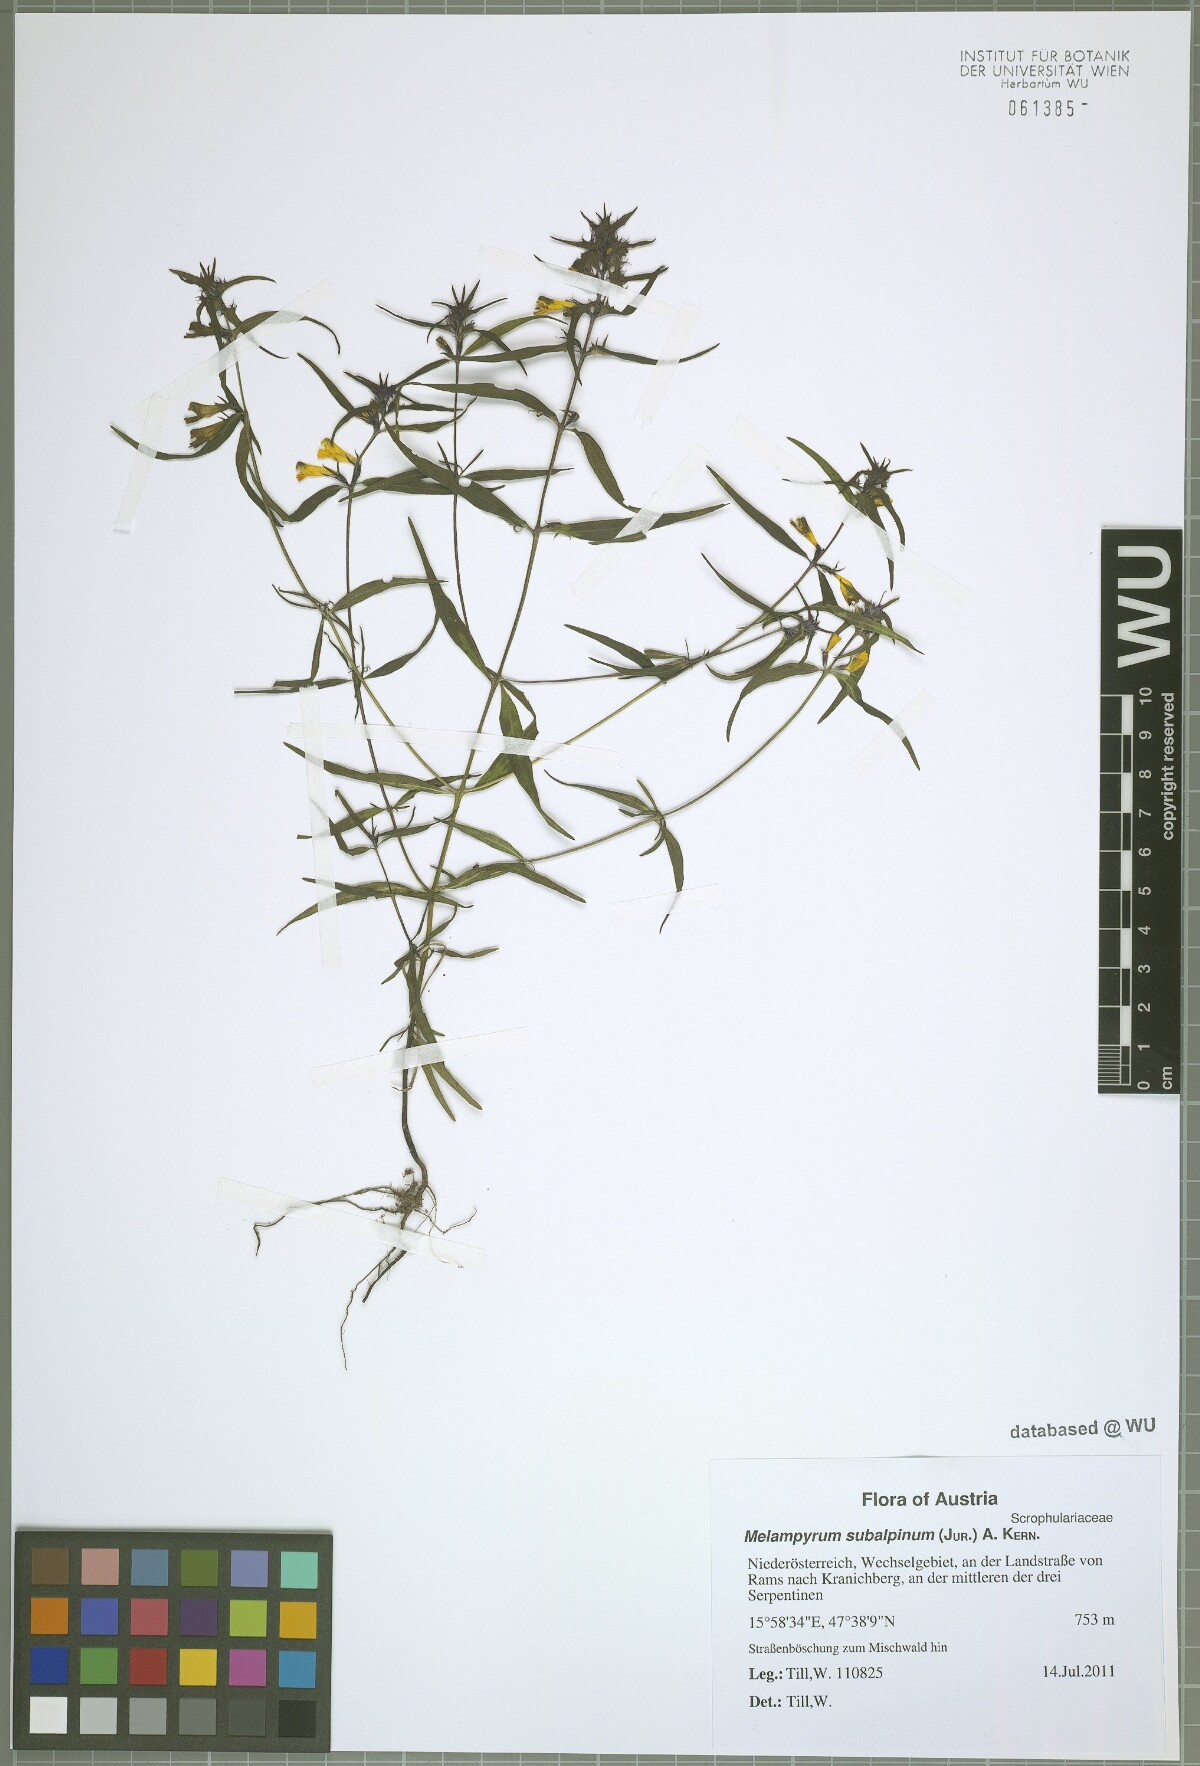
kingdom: Plantae
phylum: Tracheophyta
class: Magnoliopsida
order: Lamiales
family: Orobanchaceae
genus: Melampyrum
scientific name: Melampyrum subalpinum
